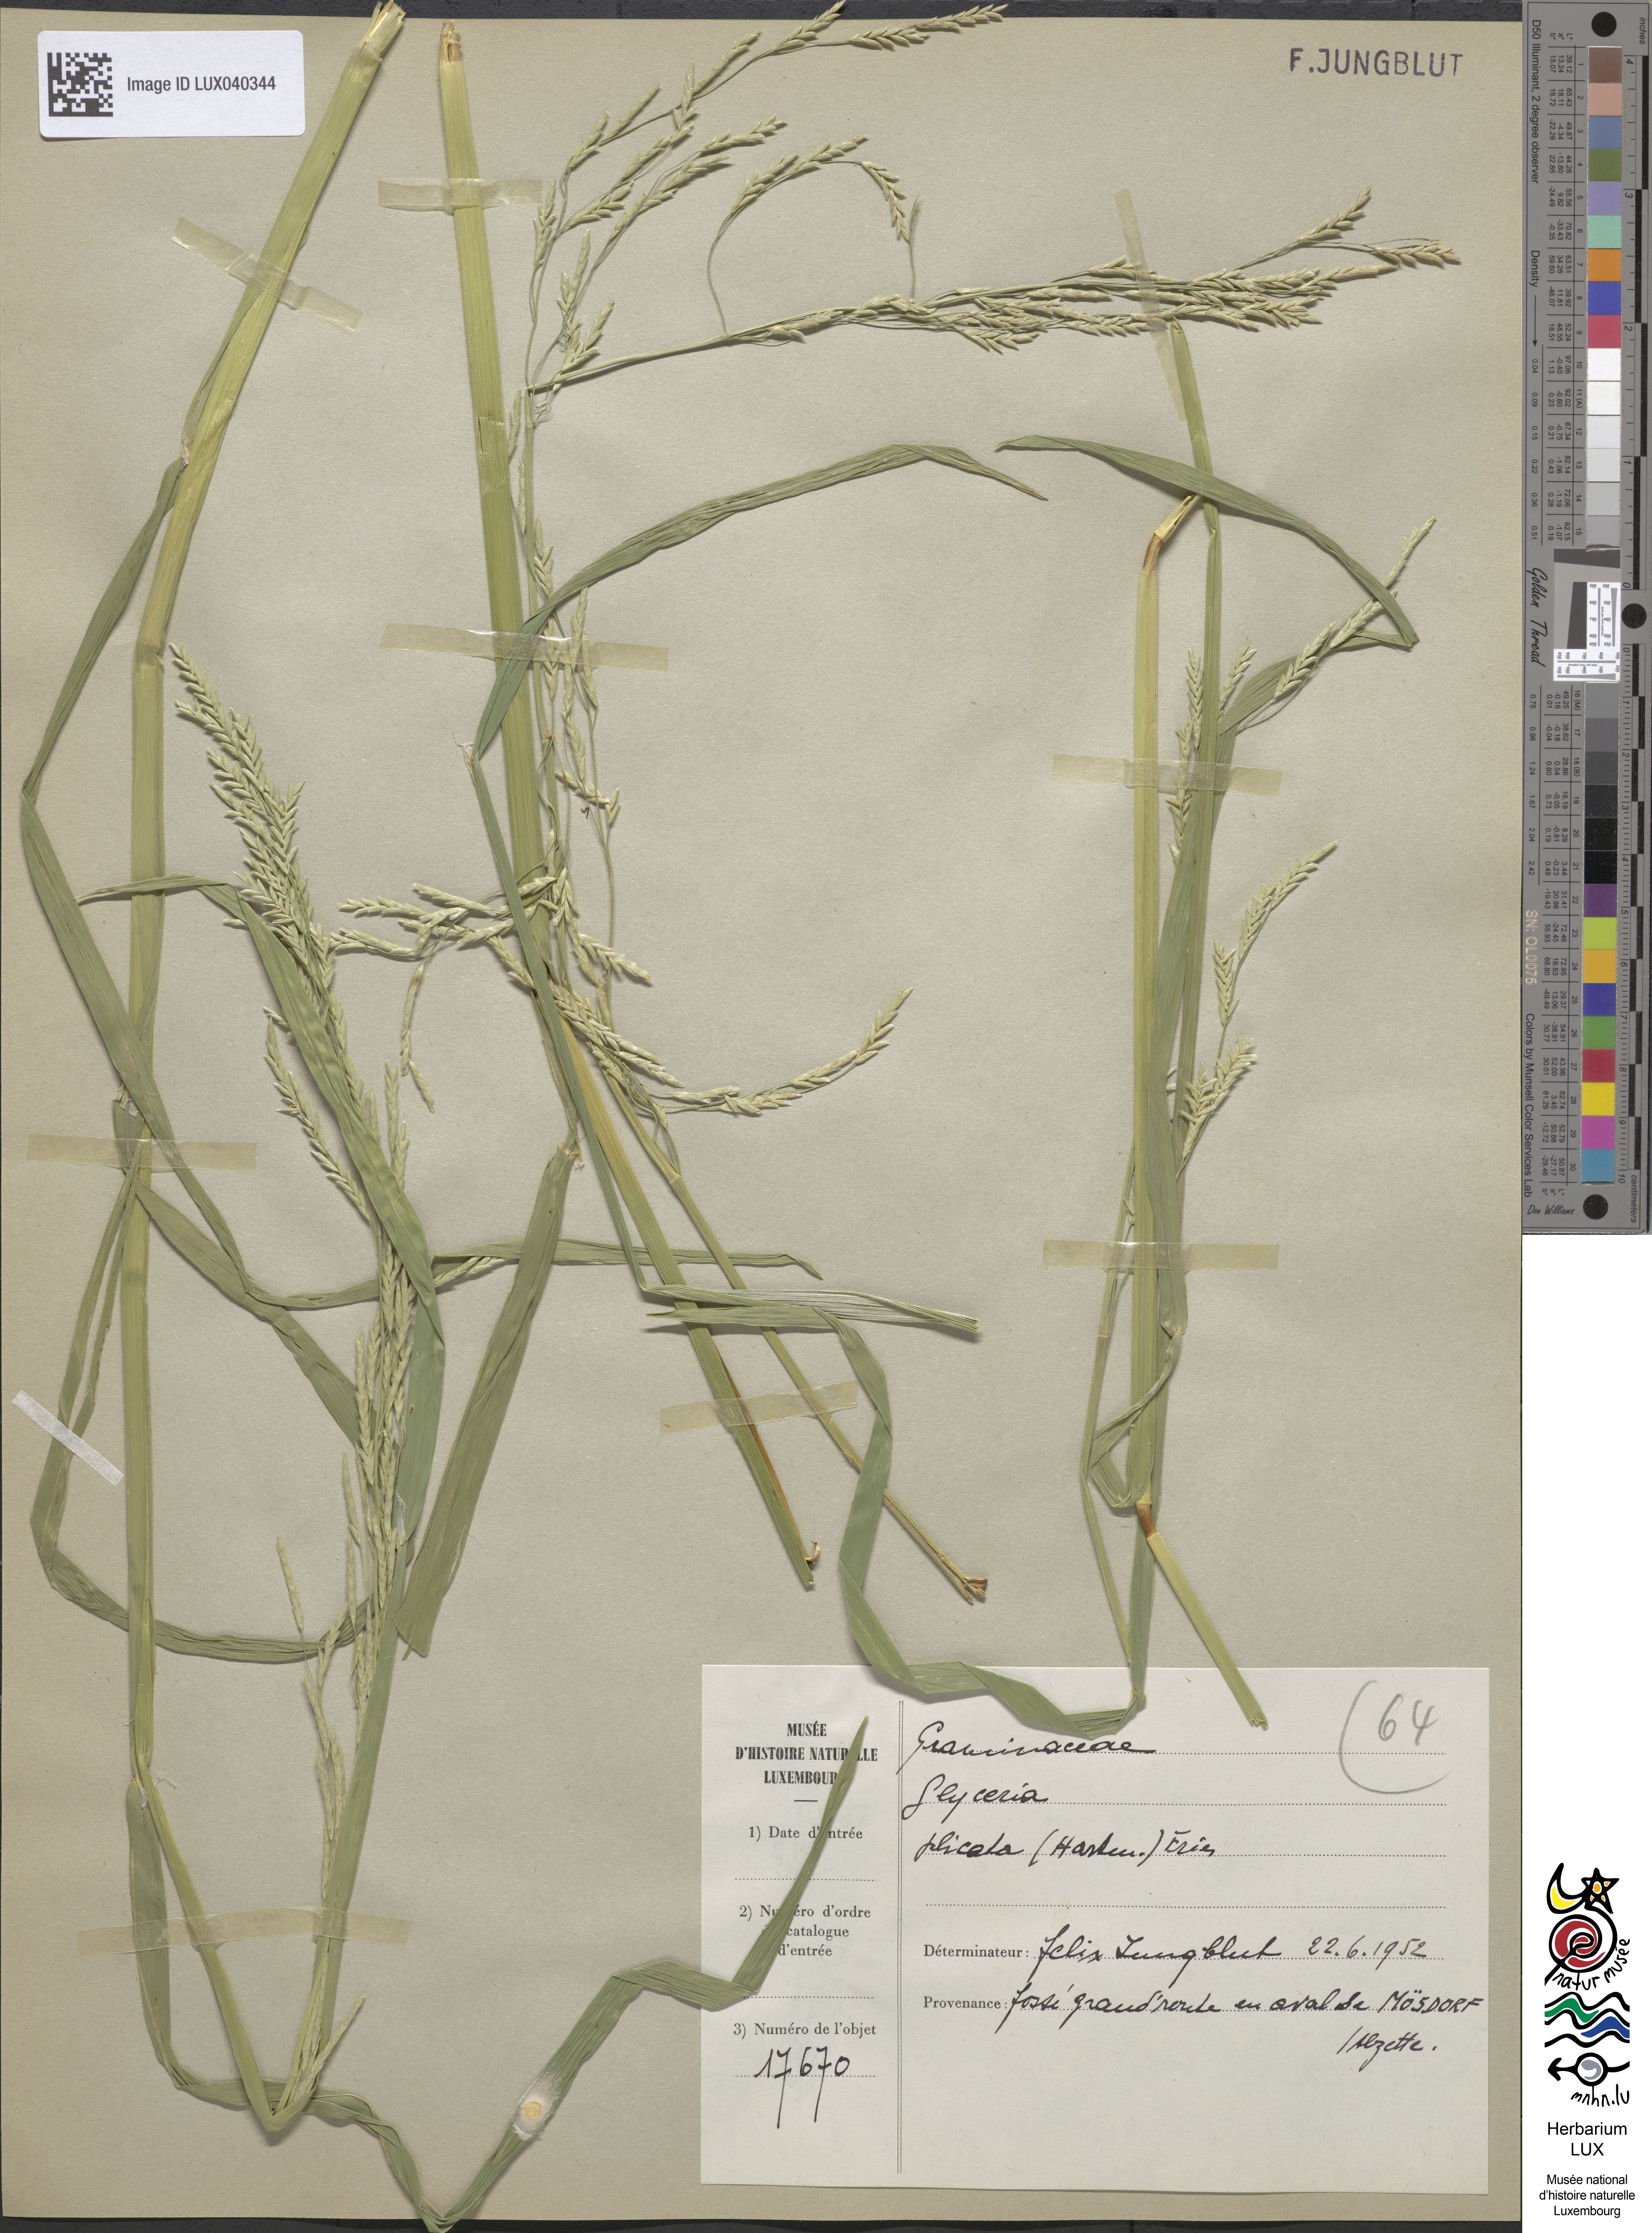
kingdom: Plantae
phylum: Tracheophyta
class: Liliopsida
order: Poales
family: Poaceae
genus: Glyceria
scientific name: Glyceria notata
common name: Plicate sweet-grass
